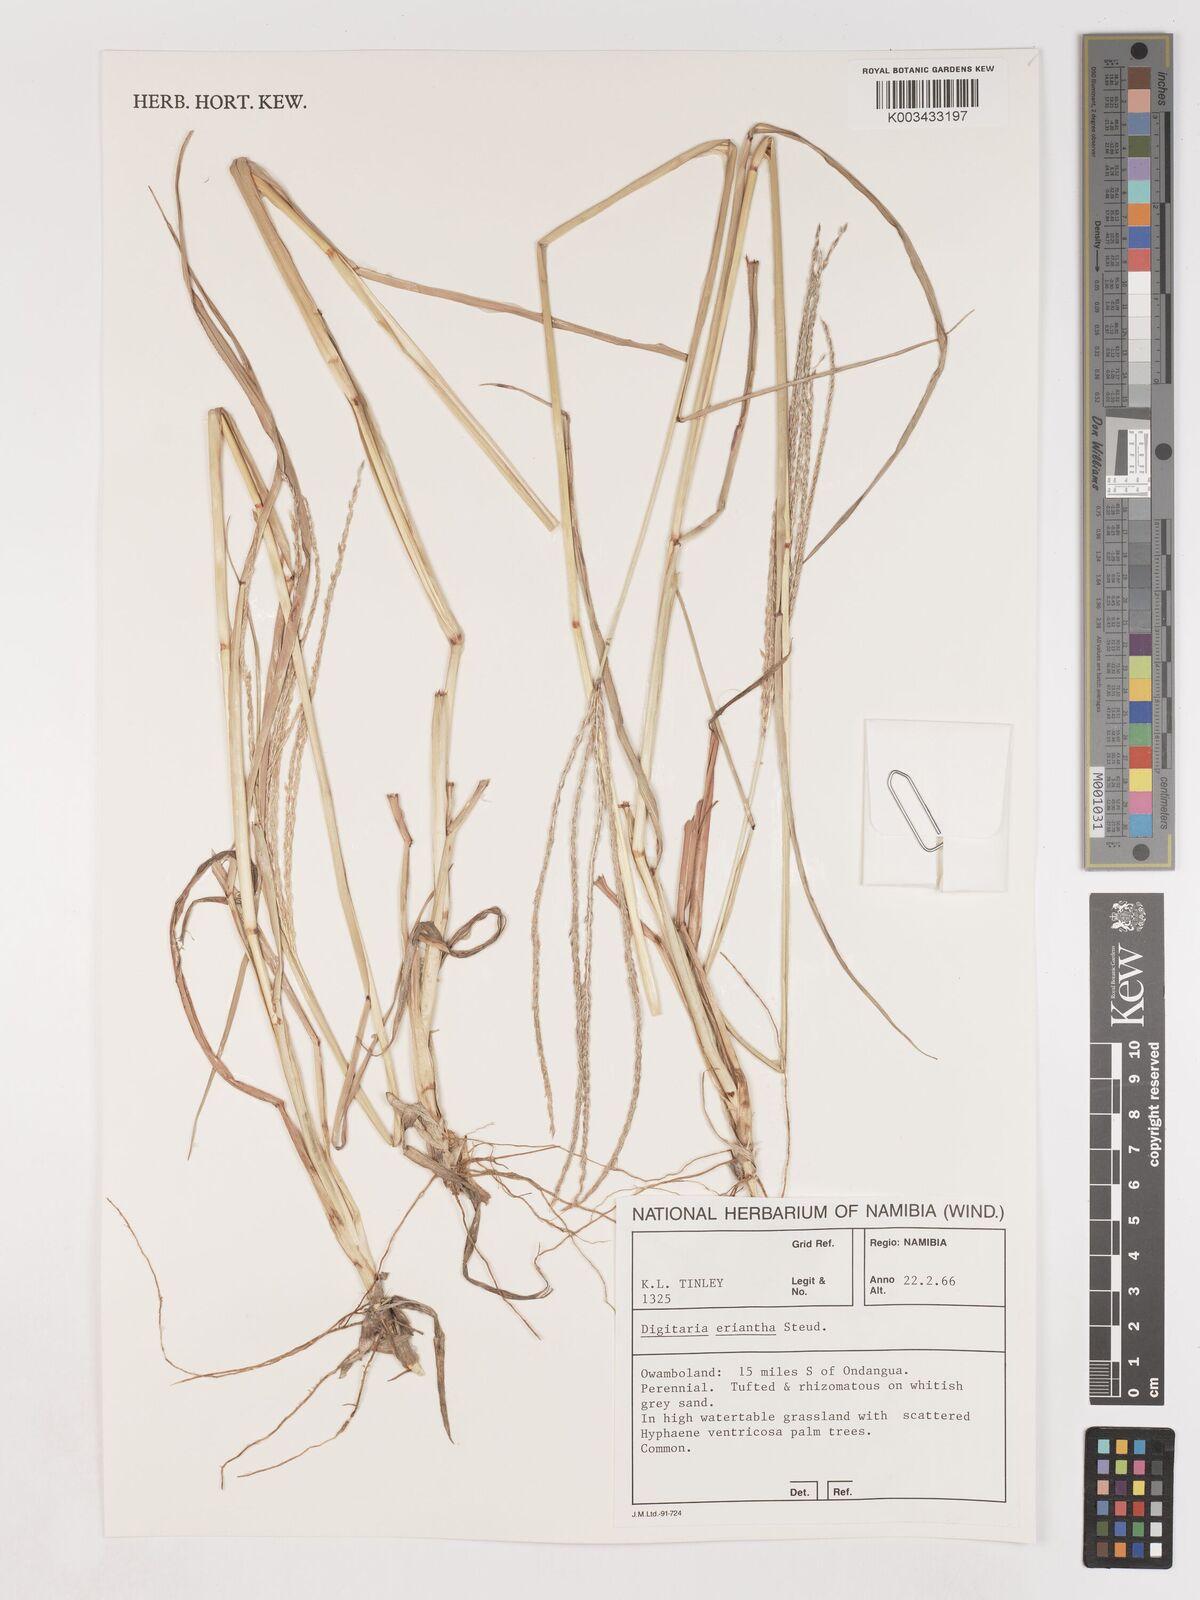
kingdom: Plantae
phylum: Tracheophyta
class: Liliopsida
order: Poales
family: Poaceae
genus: Digitaria
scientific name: Digitaria eriantha
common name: Digitgrass
